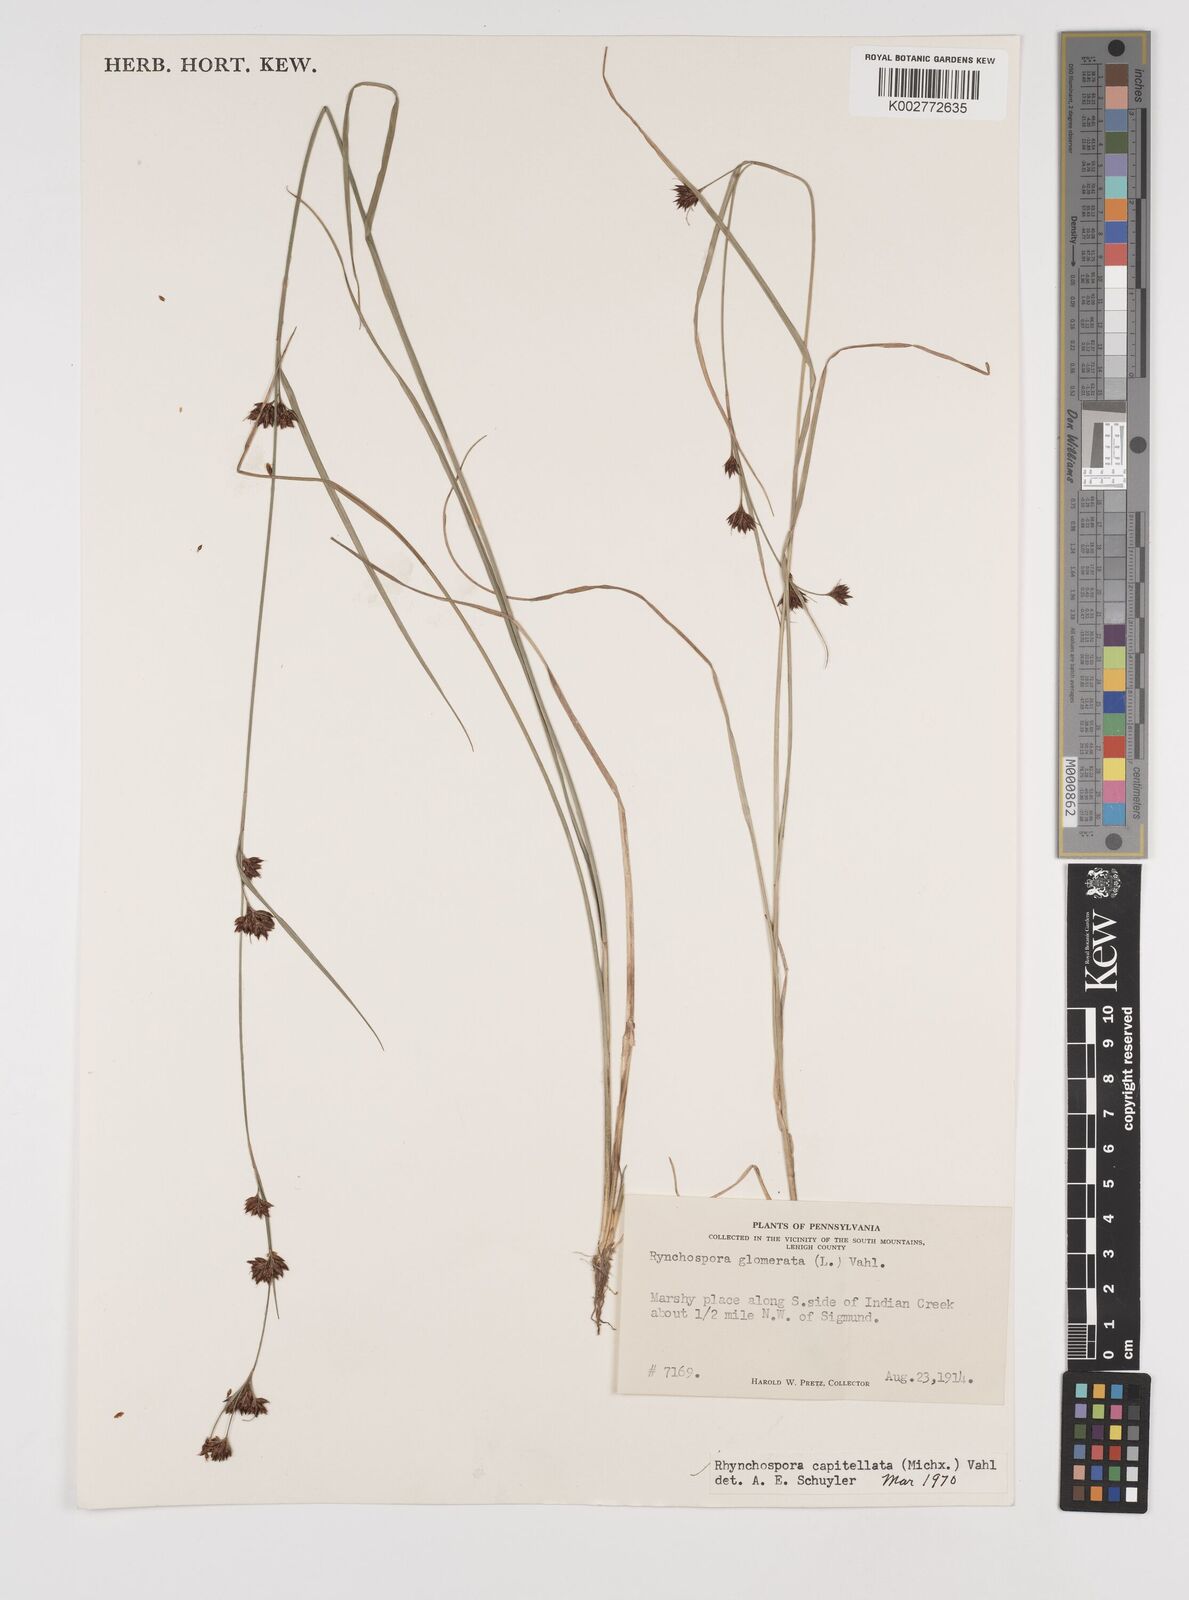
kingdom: Plantae
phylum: Tracheophyta
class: Liliopsida
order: Poales
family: Cyperaceae
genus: Rhynchospora
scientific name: Rhynchospora capitellata
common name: Brownish beaksedge
